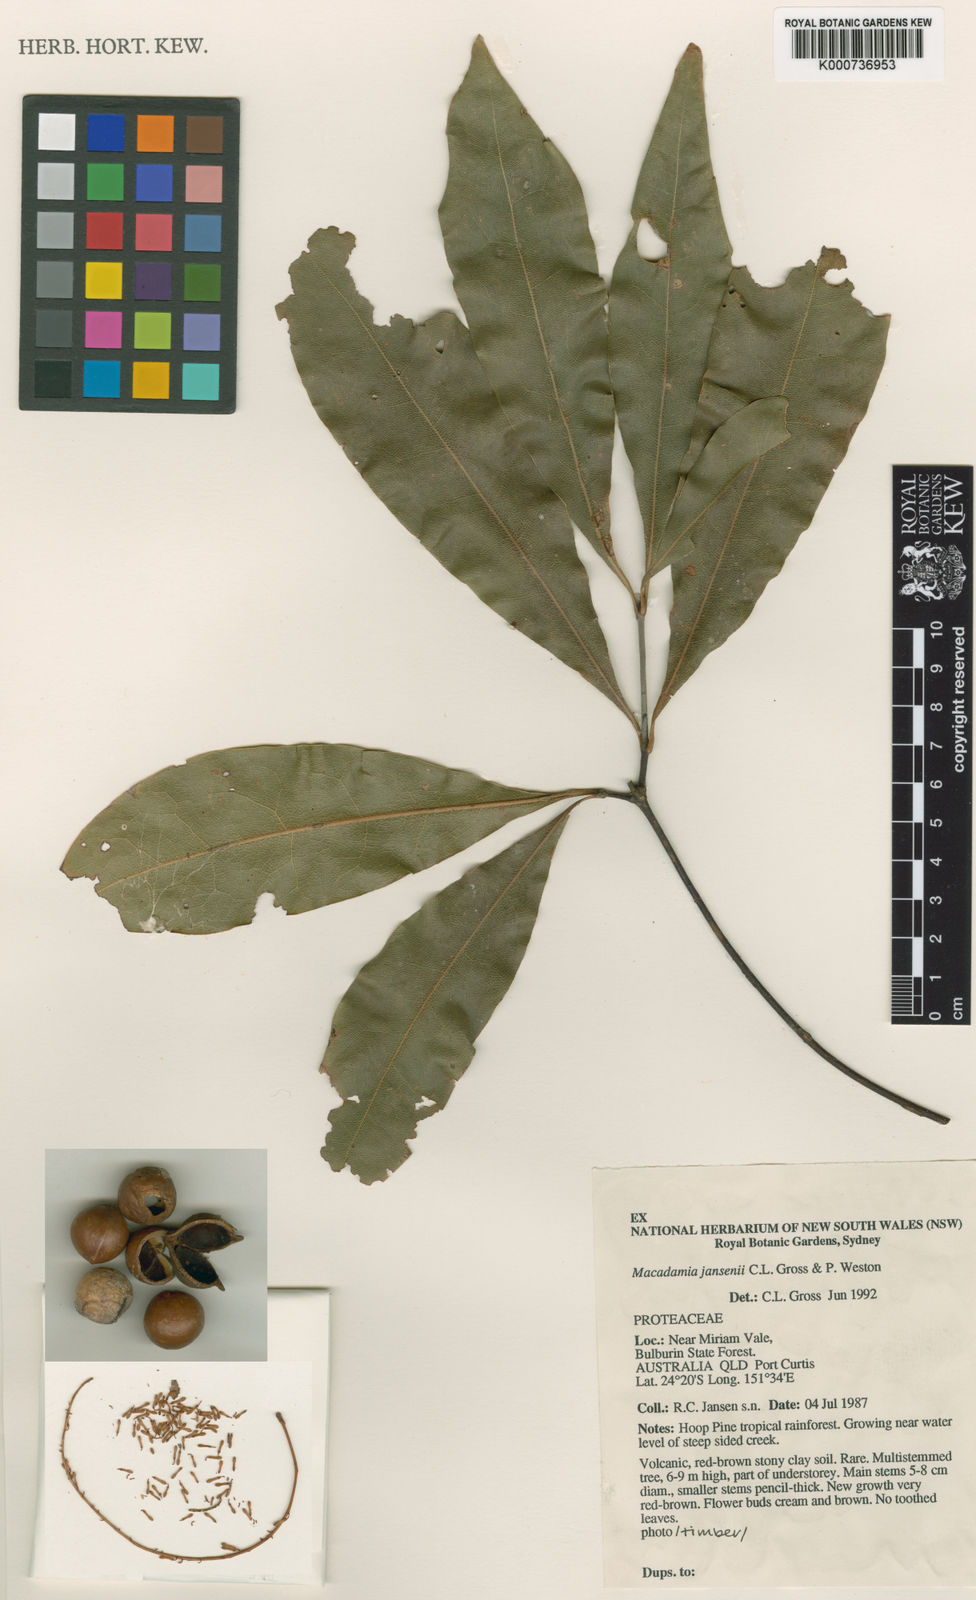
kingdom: Plantae
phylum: Tracheophyta
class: Magnoliopsida
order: Proteales
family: Proteaceae
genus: Macadamia
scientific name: Macadamia jansenii
